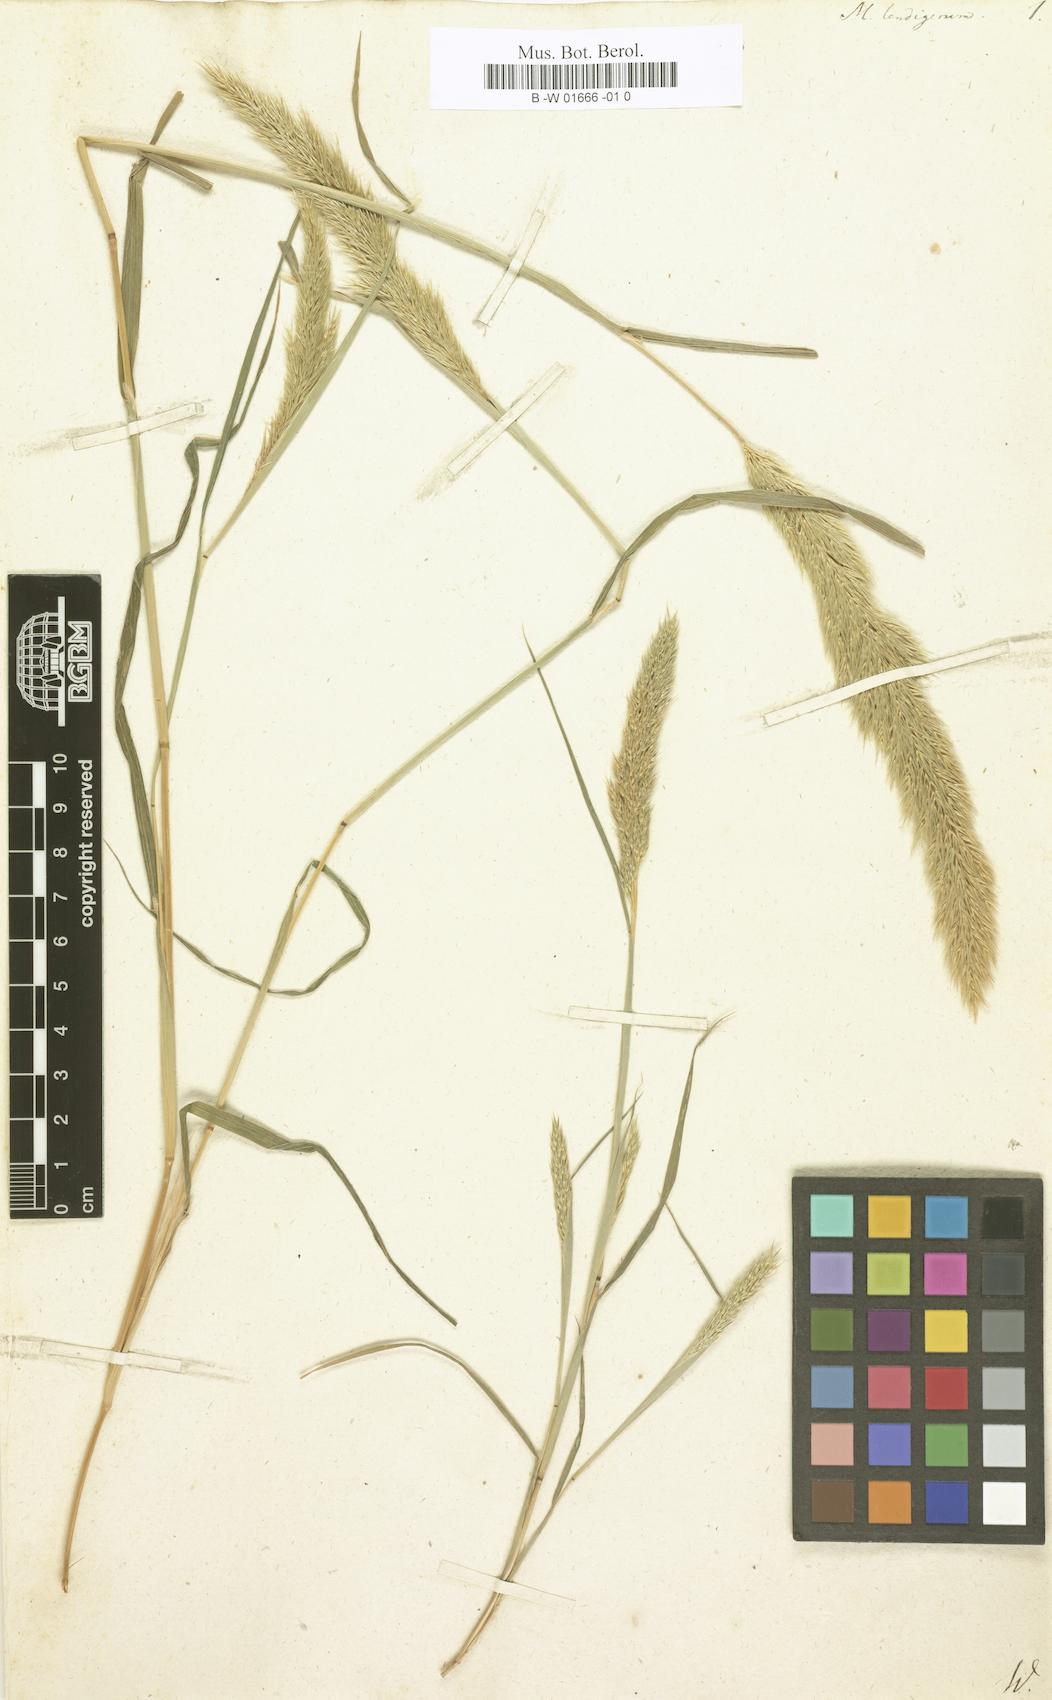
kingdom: Plantae
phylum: Tracheophyta
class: Liliopsida
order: Poales
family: Poaceae
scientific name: Poaceae
